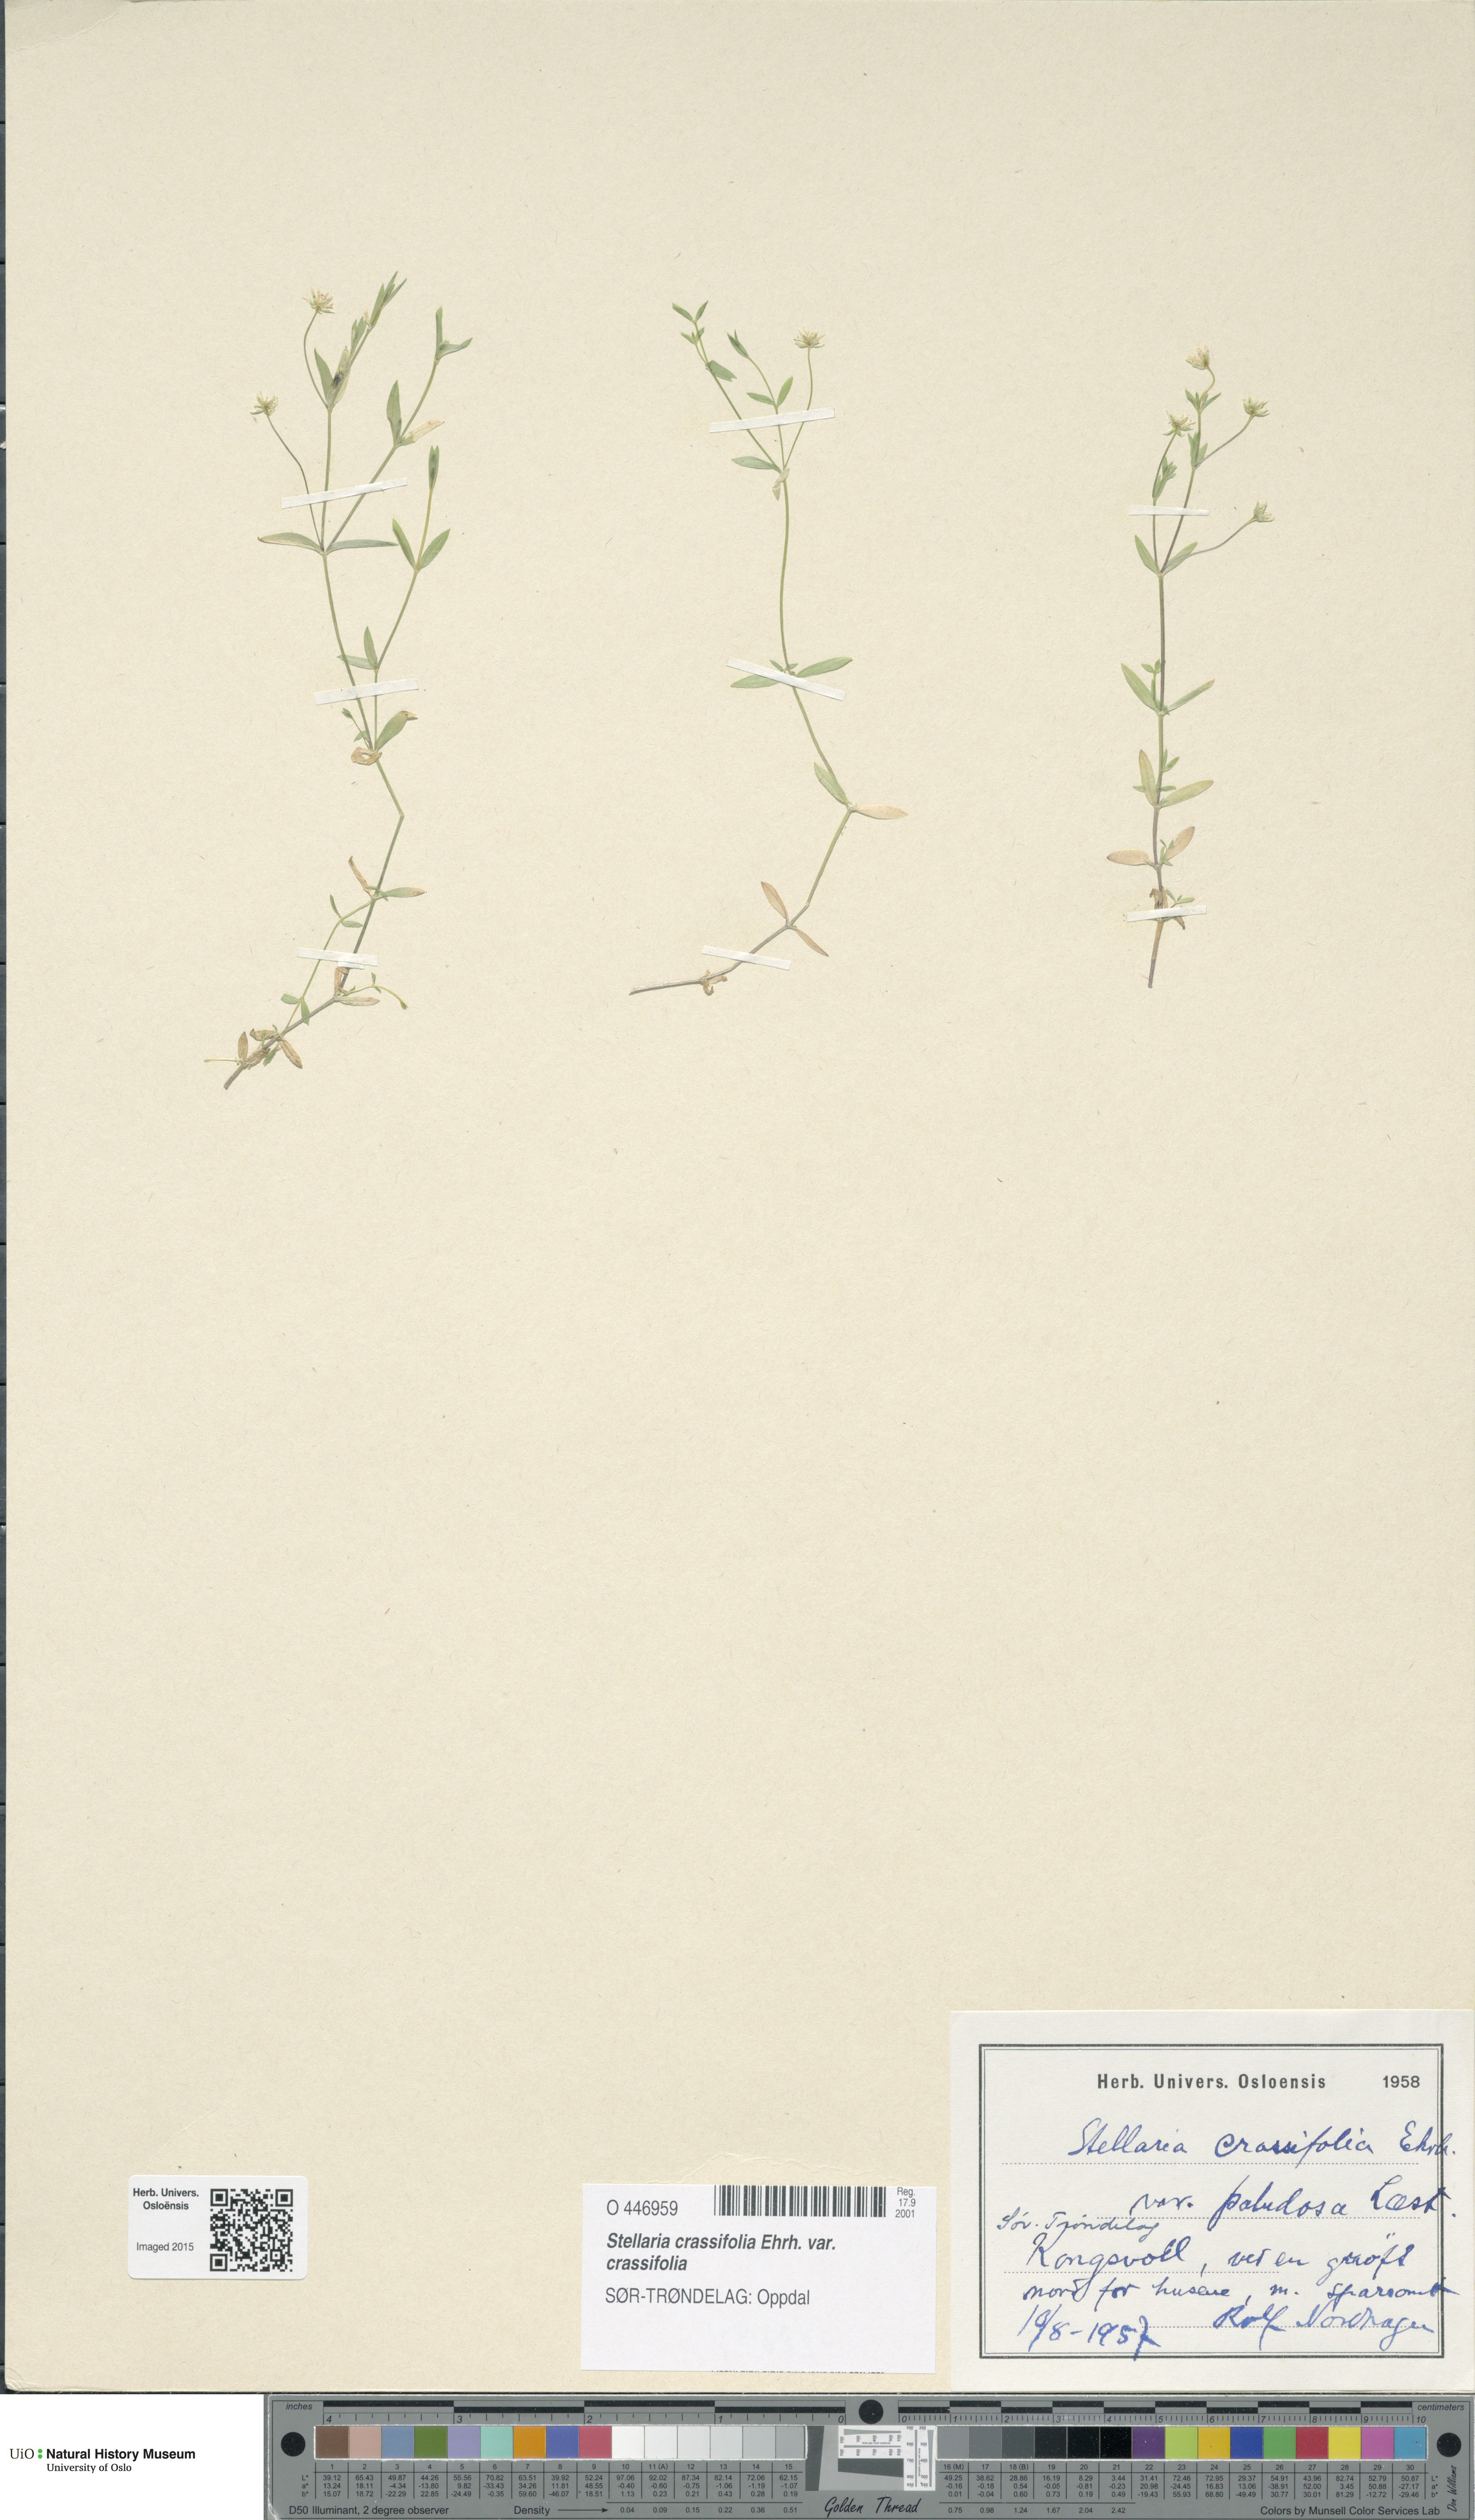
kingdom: Plantae
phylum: Tracheophyta
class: Magnoliopsida
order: Caryophyllales
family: Caryophyllaceae
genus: Stellaria
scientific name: Stellaria crassifolia
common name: Fleshy starwort
